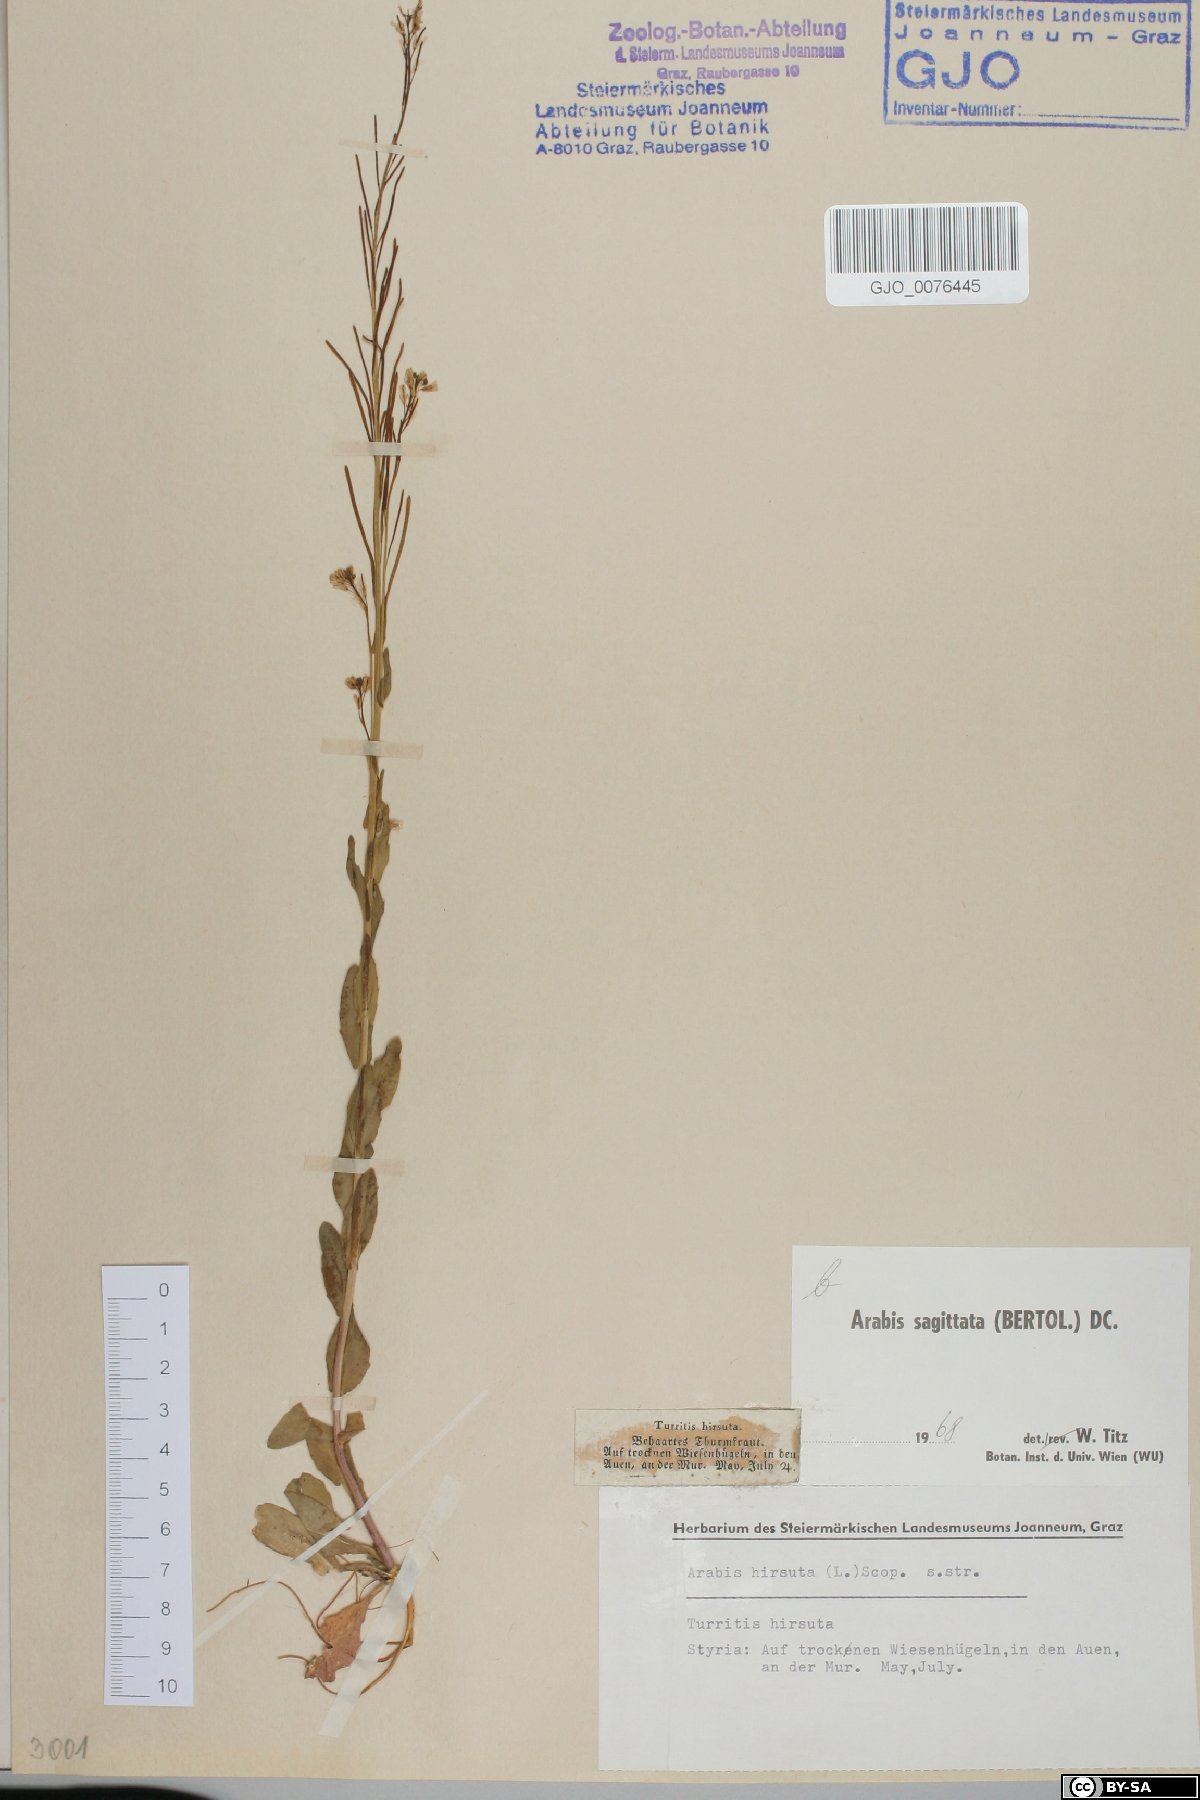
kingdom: Plantae
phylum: Tracheophyta
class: Magnoliopsida
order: Brassicales
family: Brassicaceae
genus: Arabis
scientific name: Arabis sagittata
